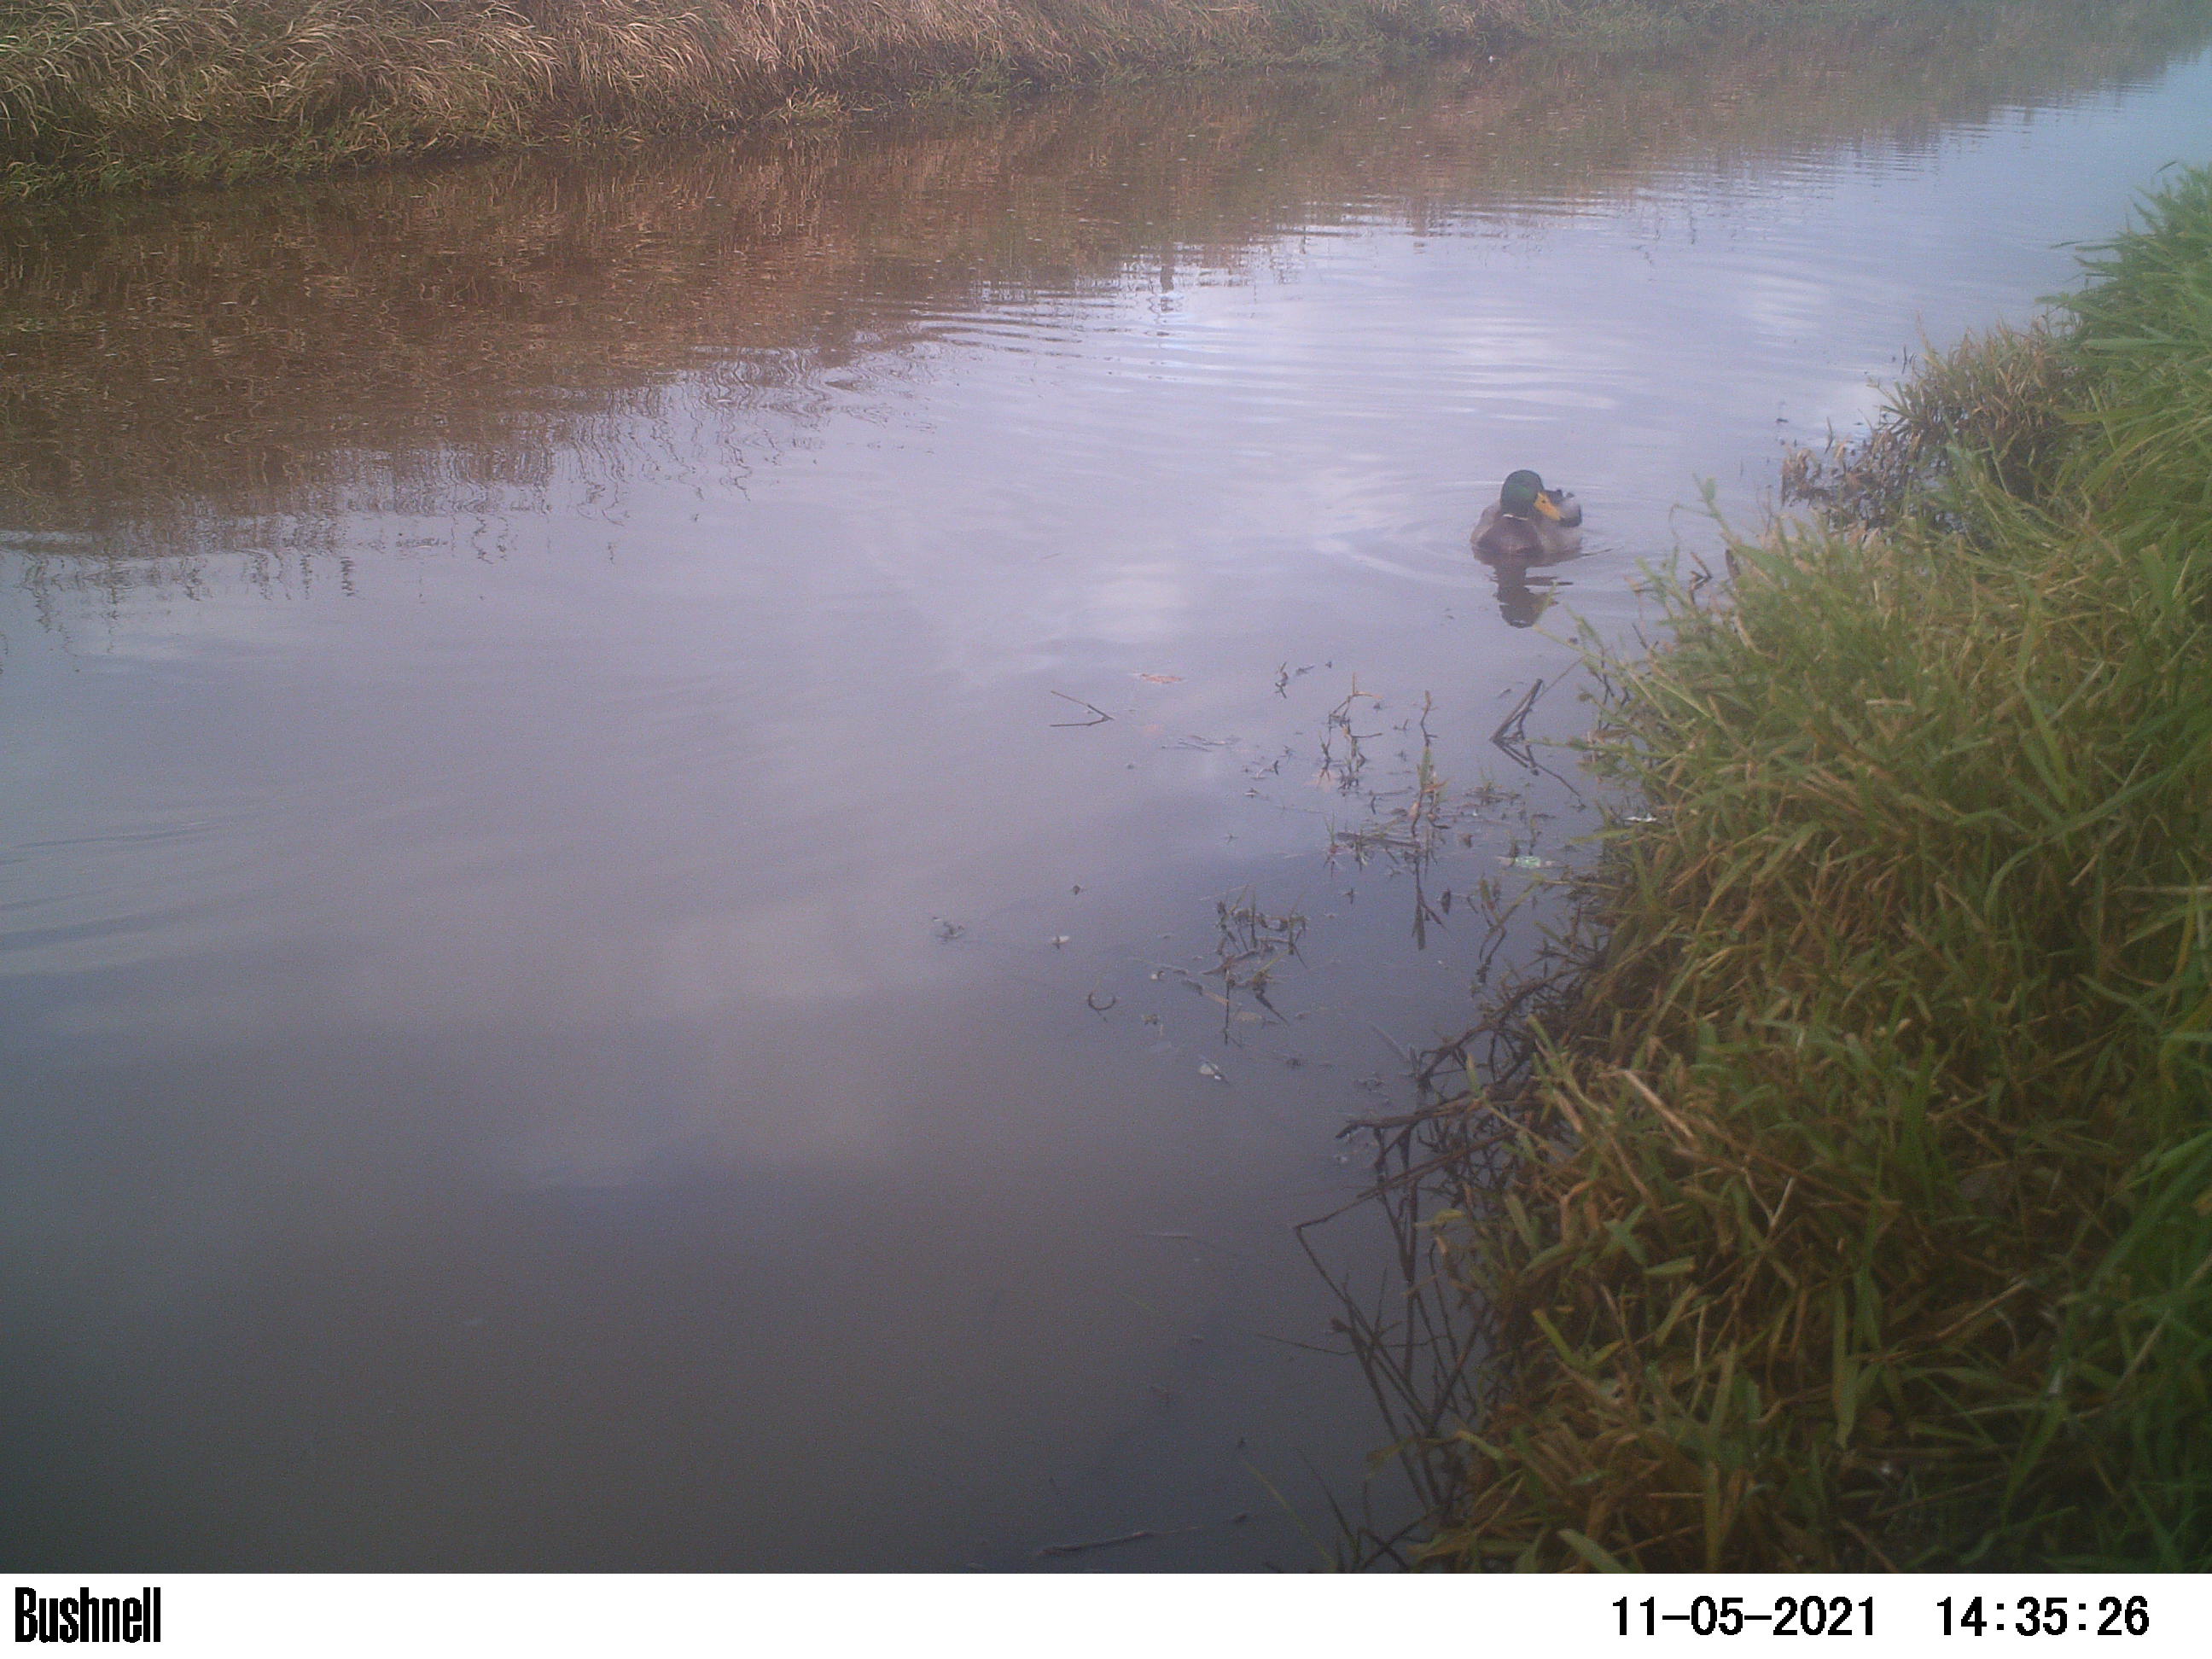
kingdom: Animalia
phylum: Chordata
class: Aves
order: Anseriformes
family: Anatidae
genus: Anas
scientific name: Anas
